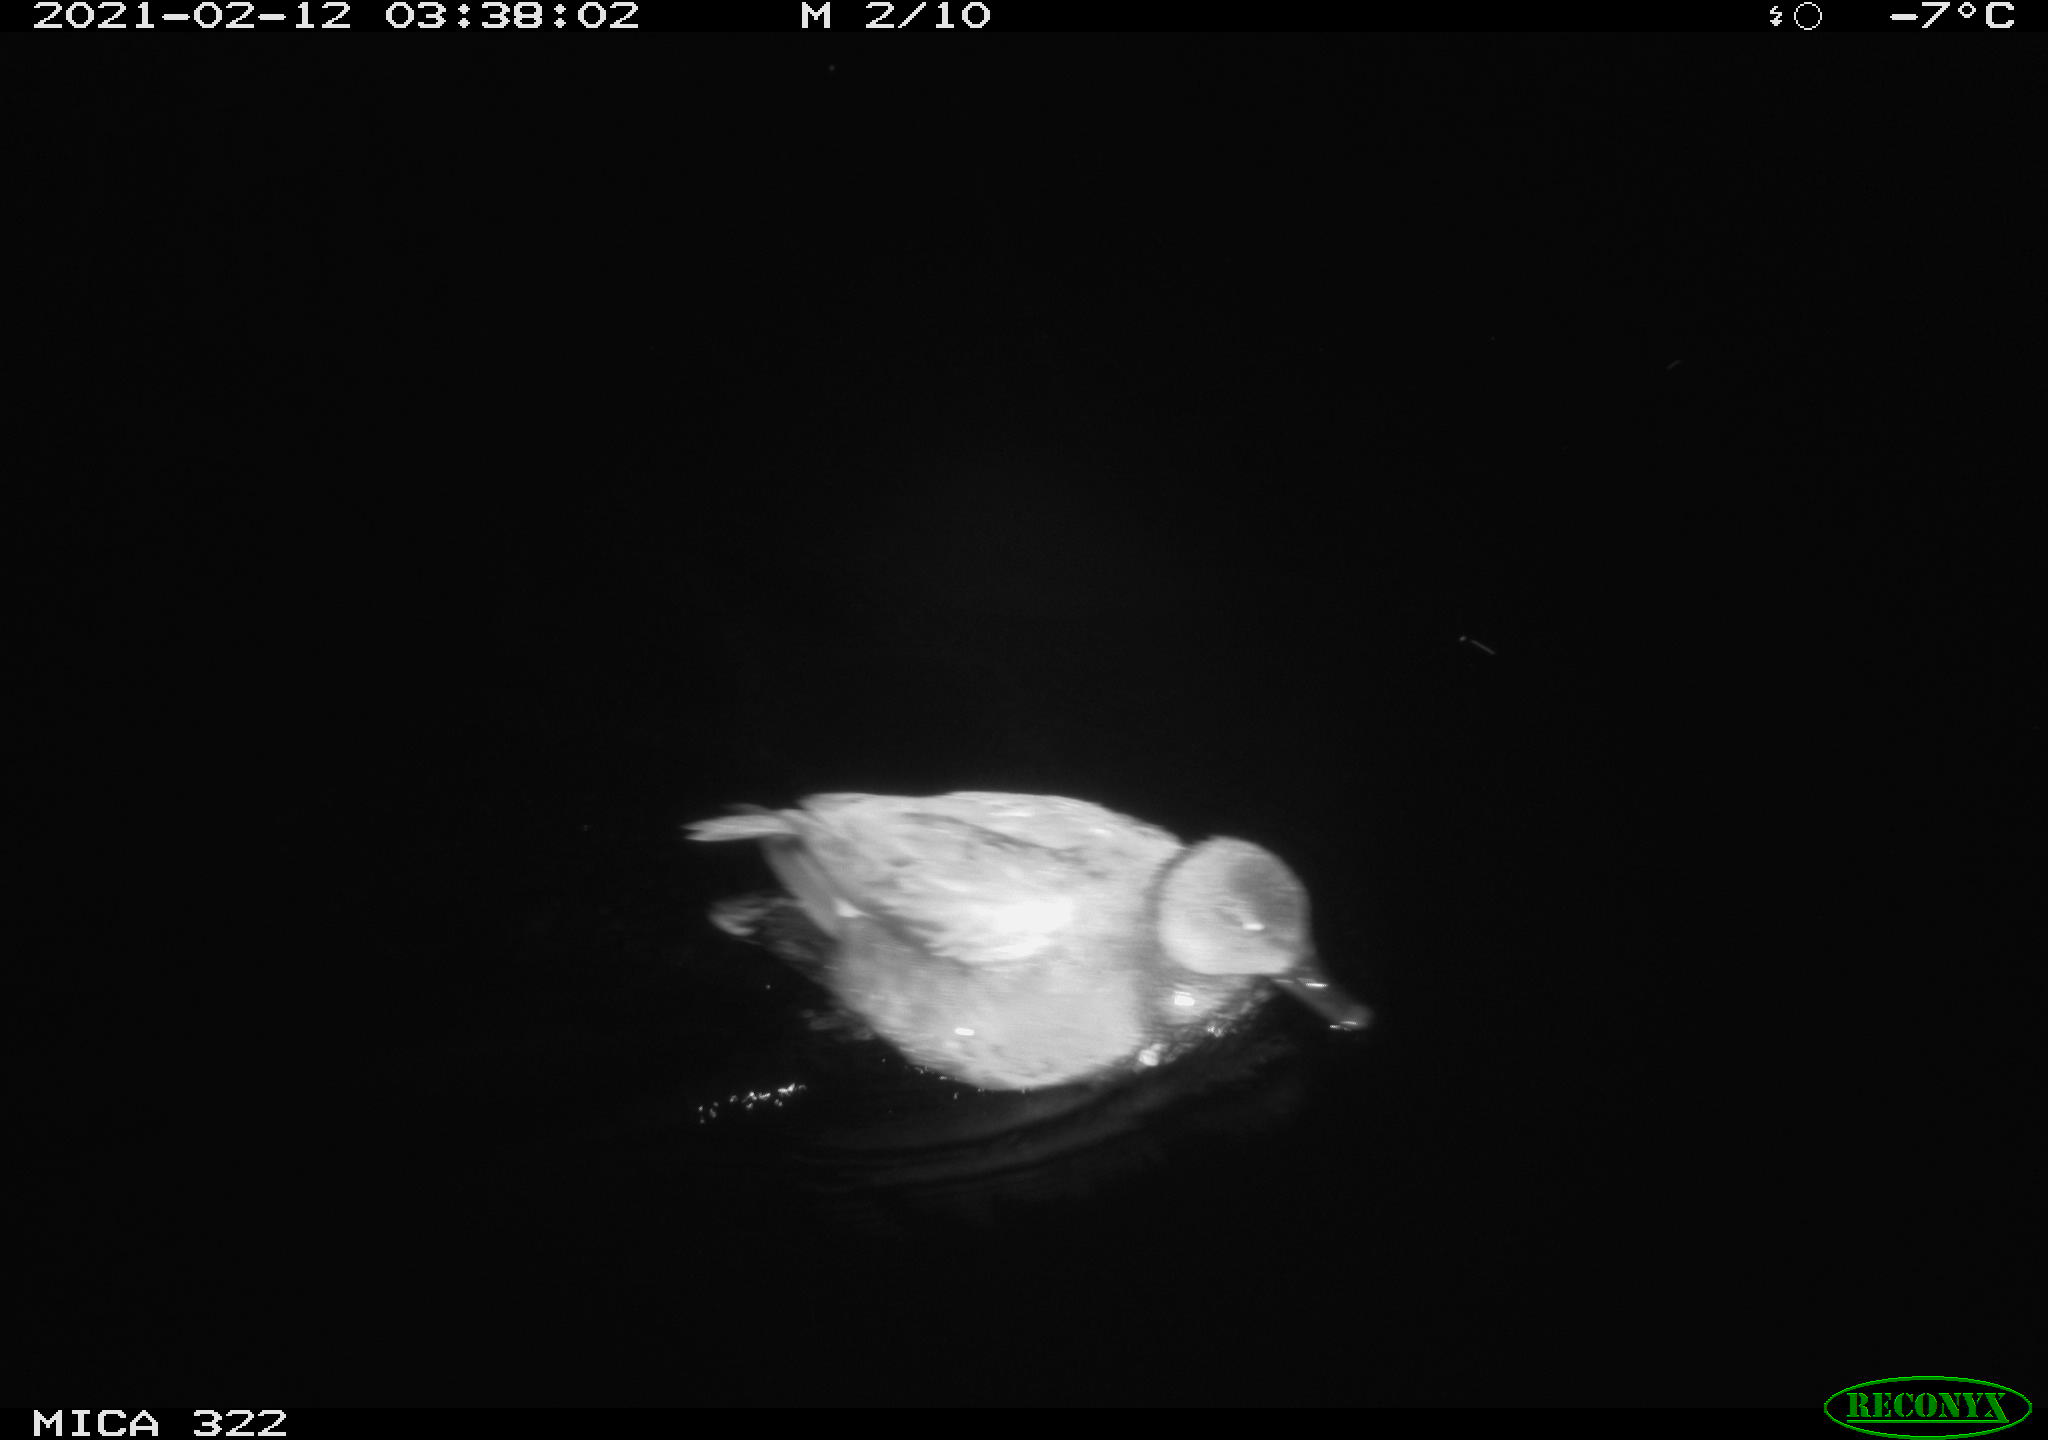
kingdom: Animalia
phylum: Chordata
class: Aves
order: Anseriformes
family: Anatidae
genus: Anas
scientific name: Anas platyrhynchos
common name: Mallard
